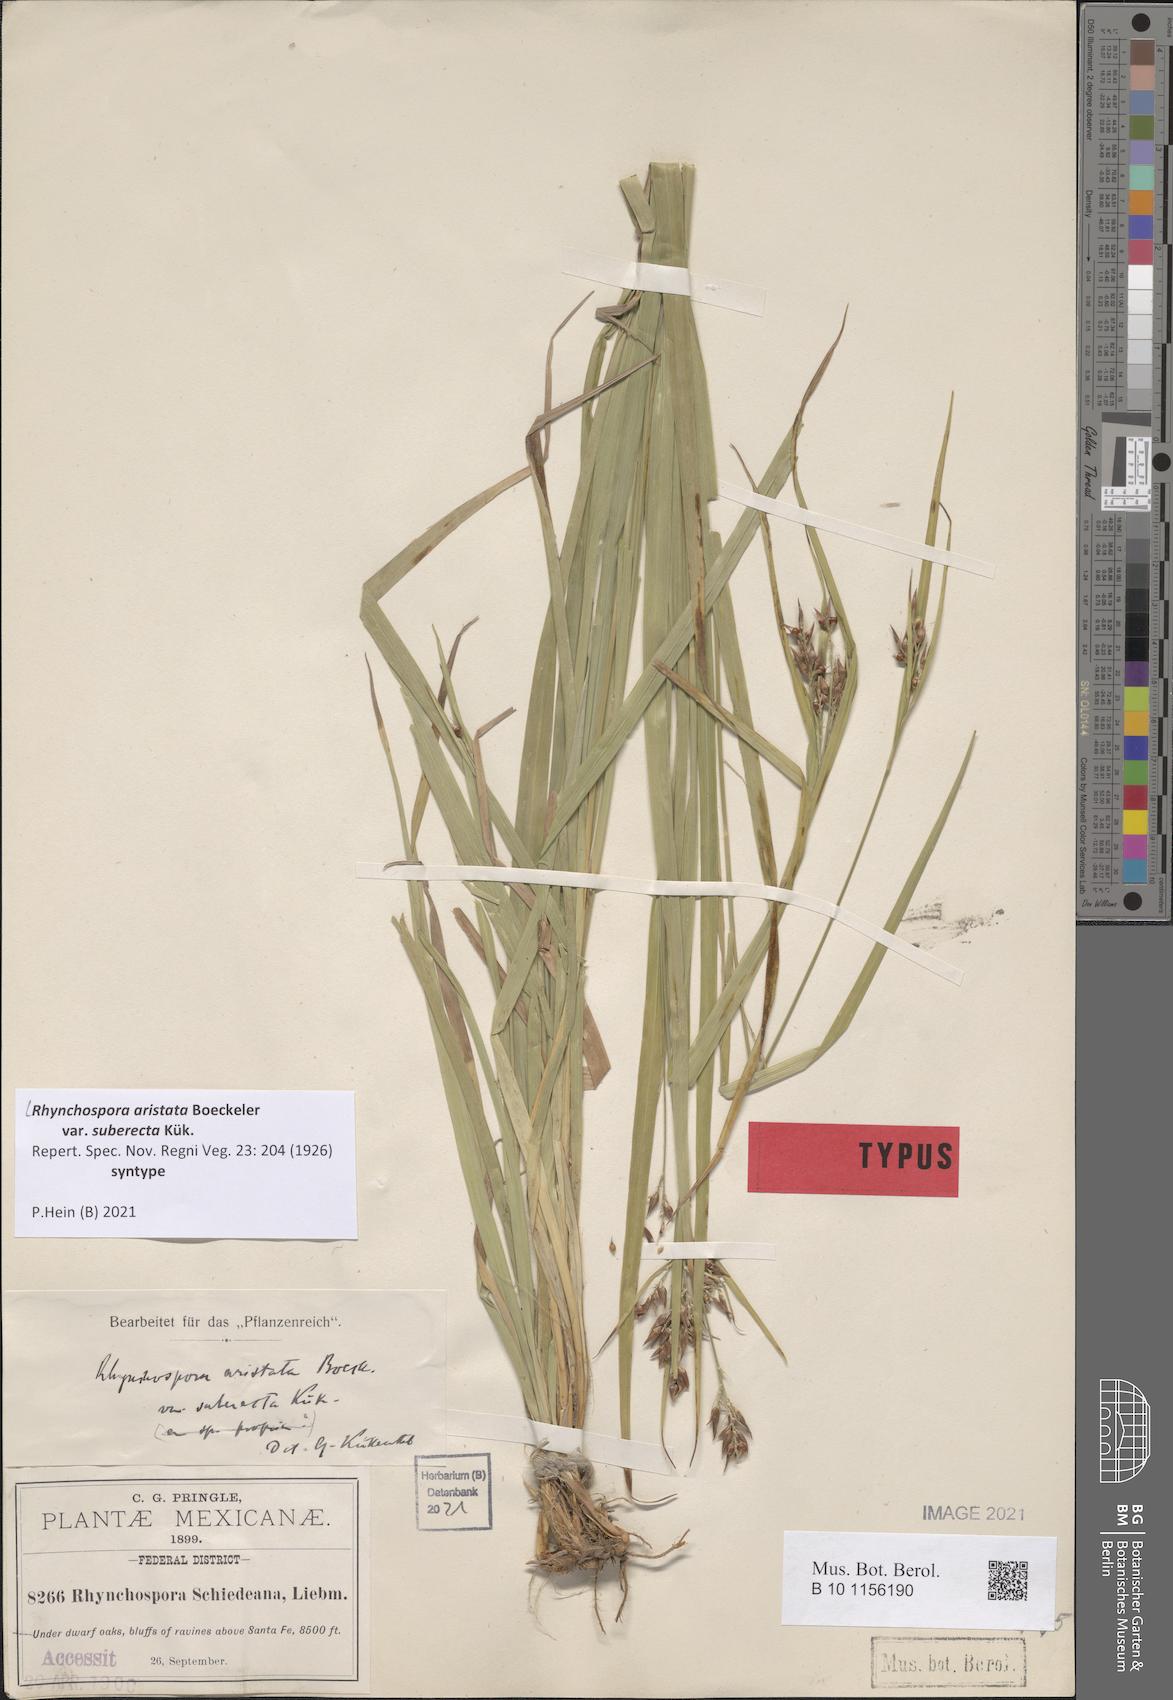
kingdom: Plantae
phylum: Tracheophyta
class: Liliopsida
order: Poales
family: Cyperaceae
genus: Rhynchospora
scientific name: Rhynchospora aristata
